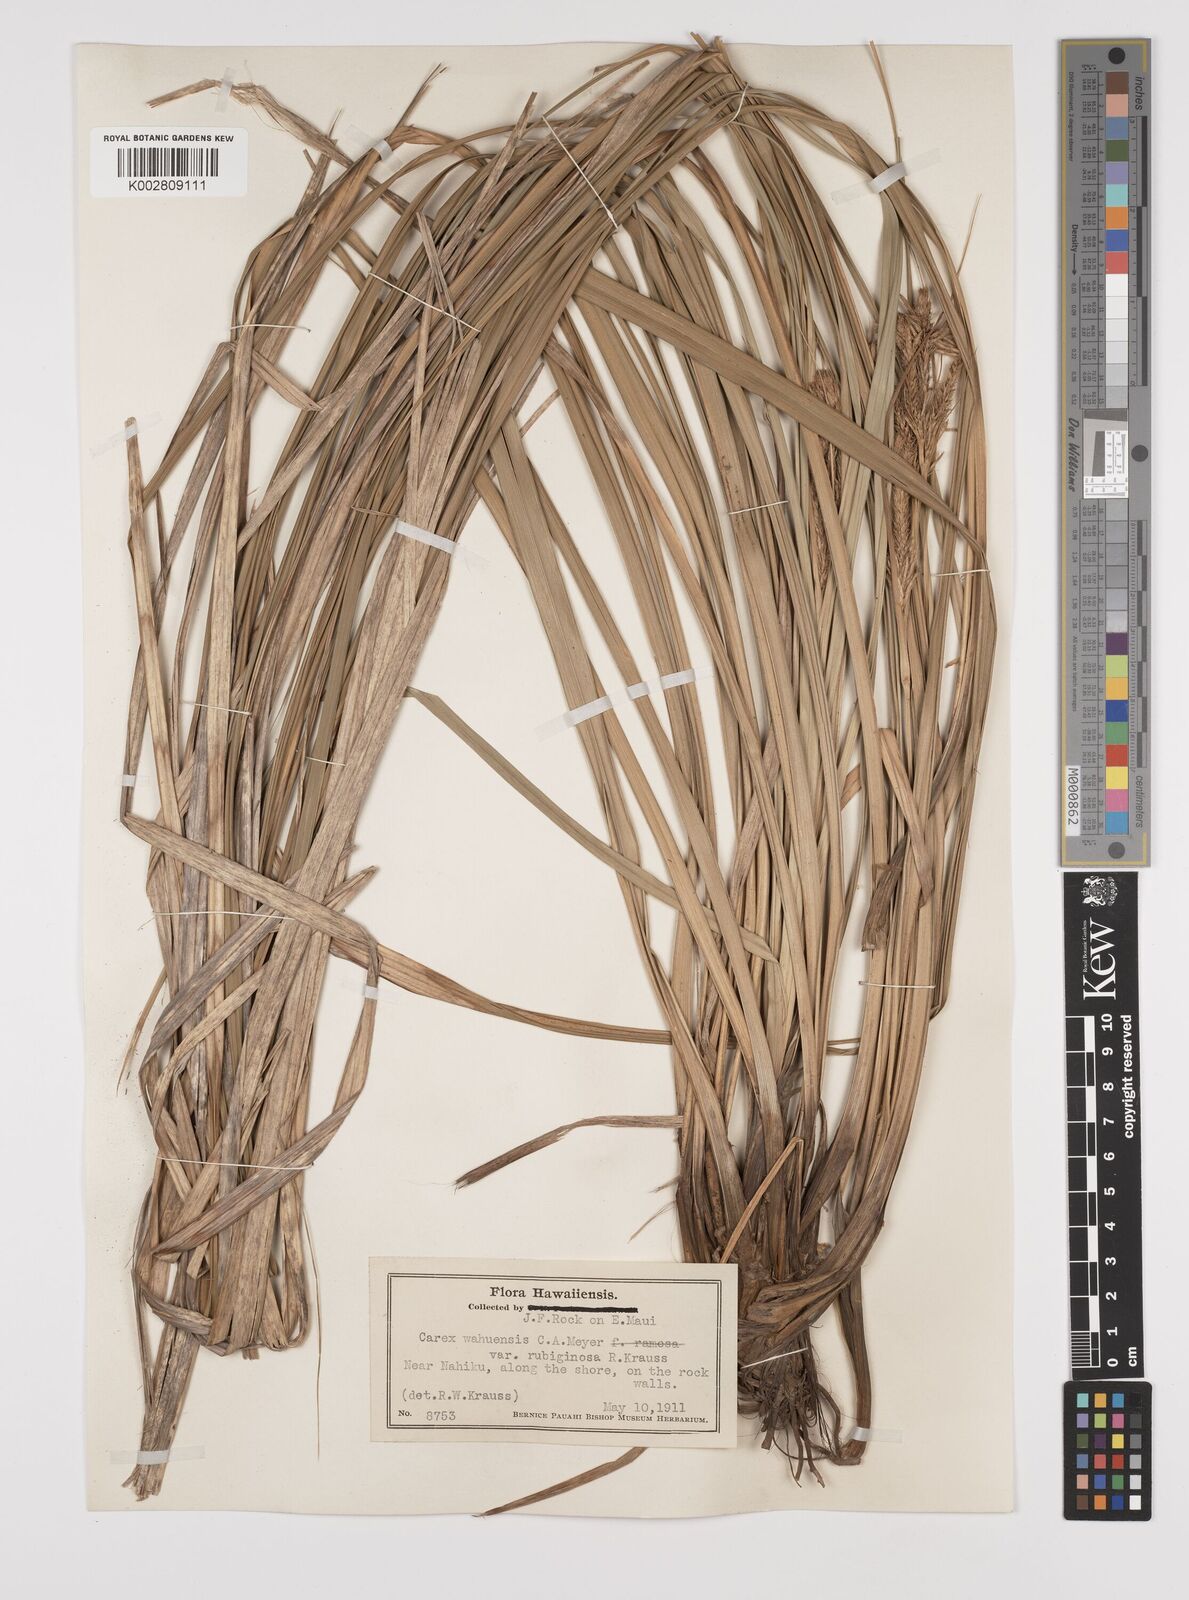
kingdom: Plantae
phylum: Tracheophyta
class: Liliopsida
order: Poales
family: Cyperaceae
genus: Carex
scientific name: Carex wahuensis
